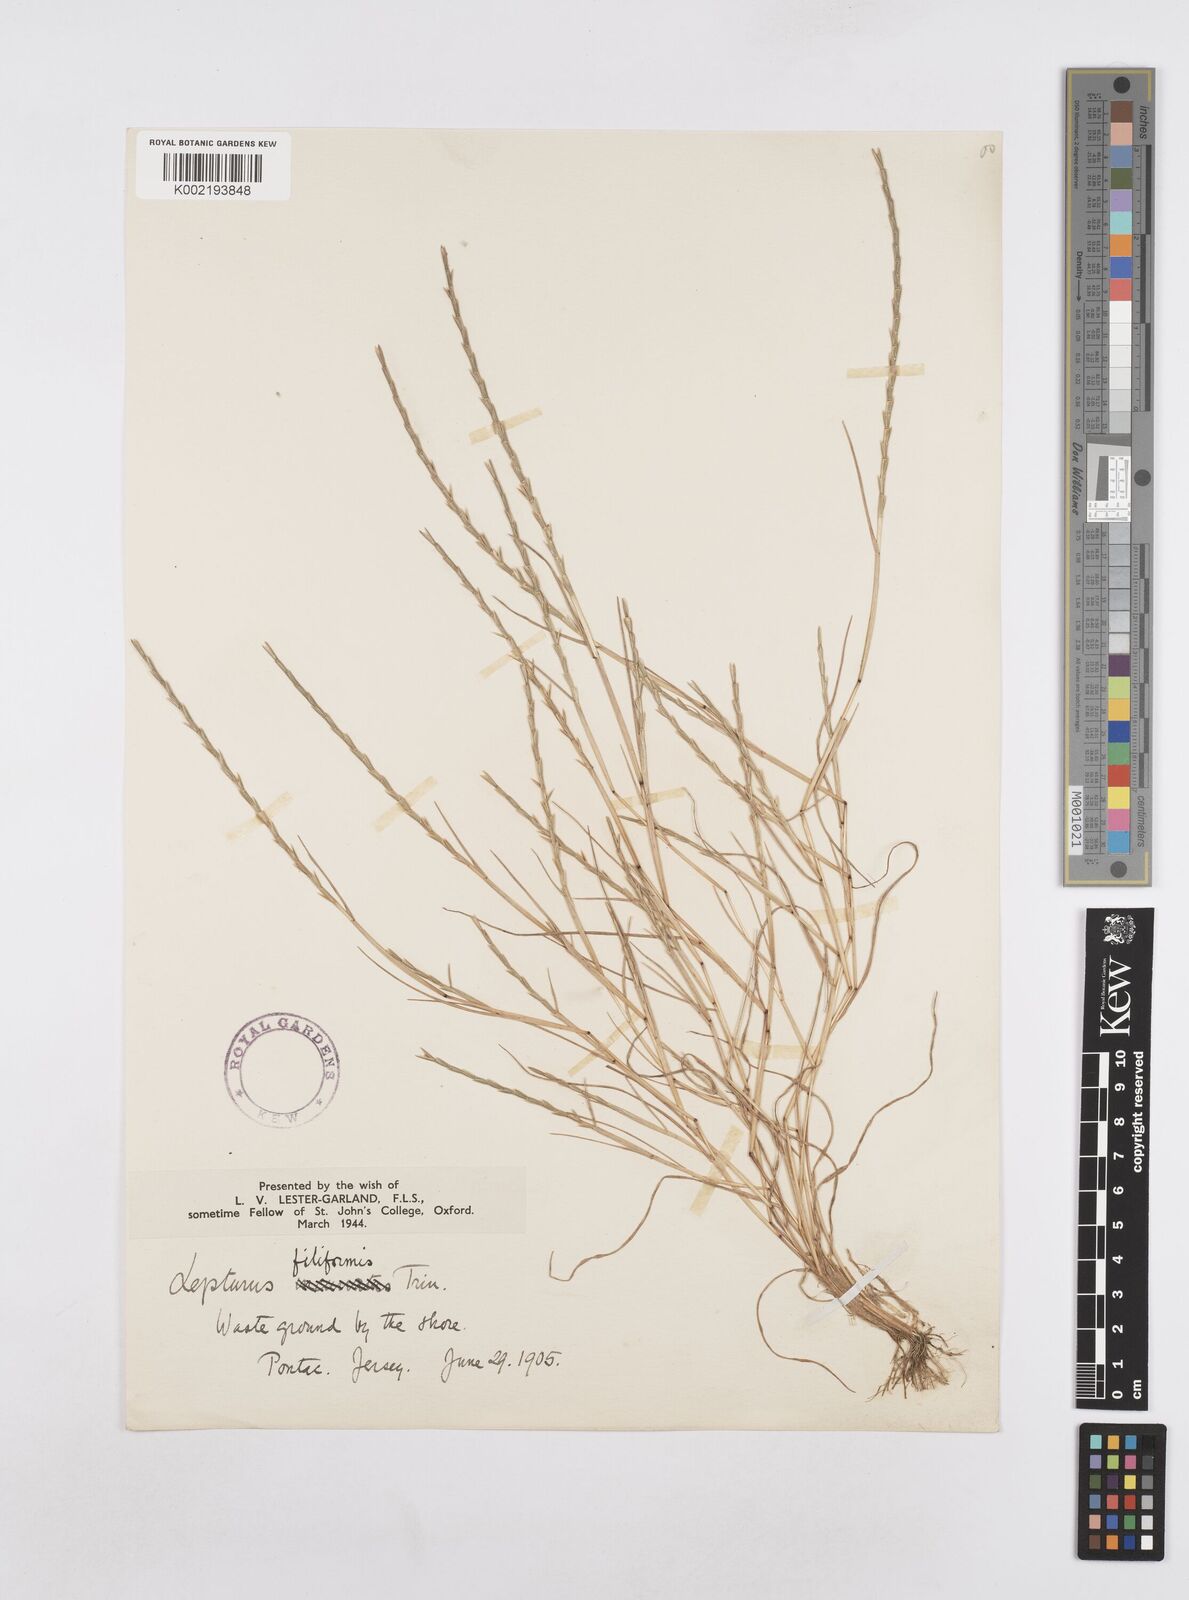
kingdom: Plantae
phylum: Tracheophyta
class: Liliopsida
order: Poales
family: Poaceae
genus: Parapholis
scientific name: Parapholis strigosa
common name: Hard-grass
